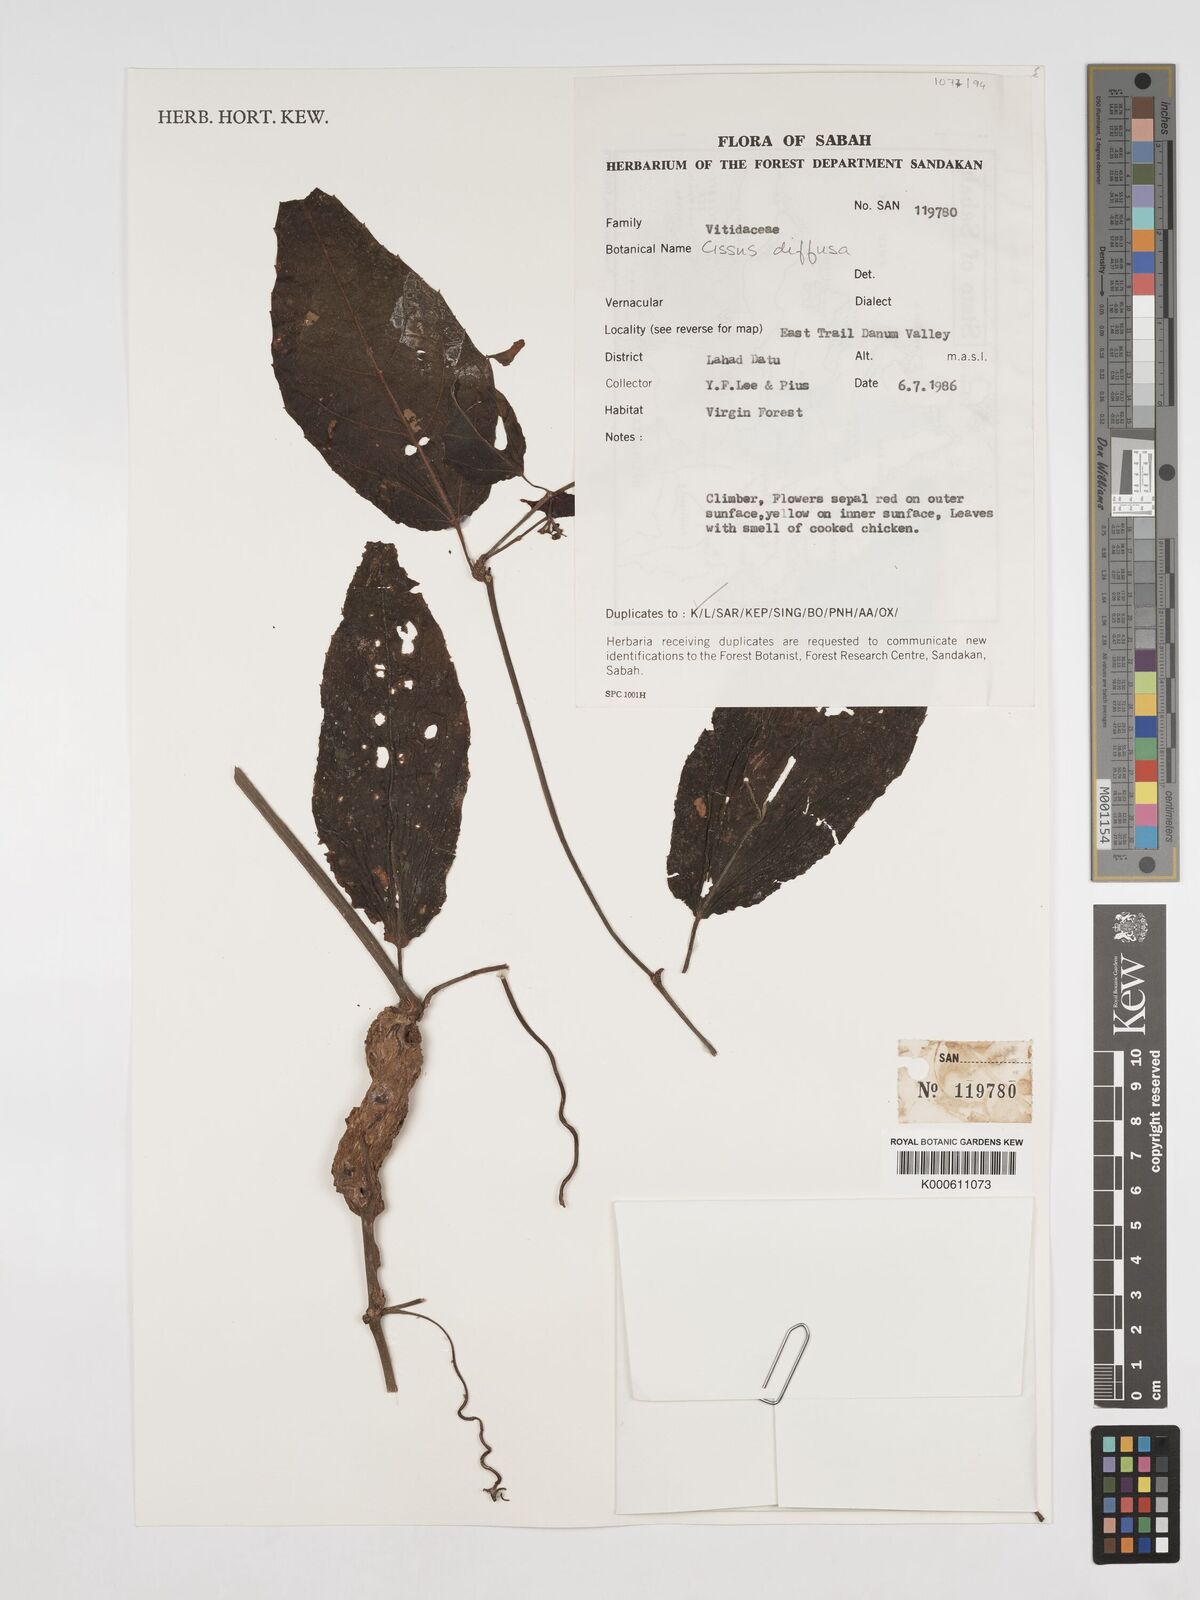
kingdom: Plantae
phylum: Tracheophyta
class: Magnoliopsida
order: Vitales
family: Vitaceae
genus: Cissus
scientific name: Cissus
